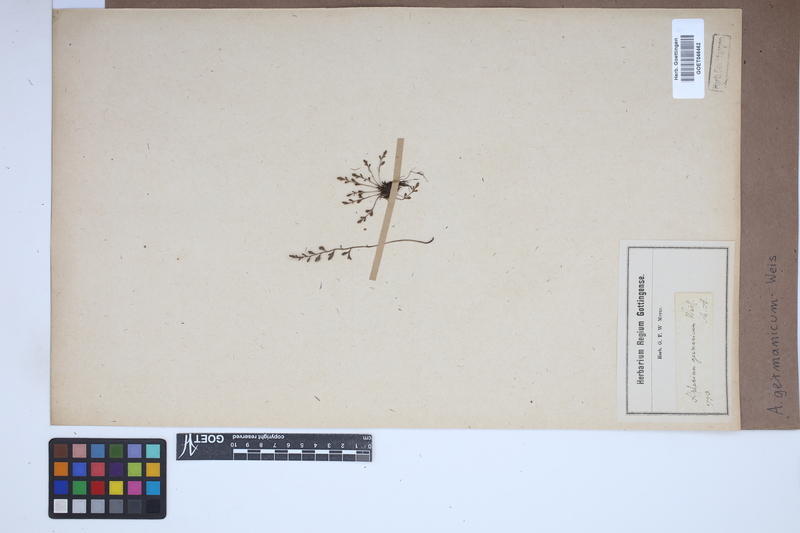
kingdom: Plantae
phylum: Tracheophyta
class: Polypodiopsida
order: Polypodiales
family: Aspleniaceae
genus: Asplenium
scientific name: Asplenium
